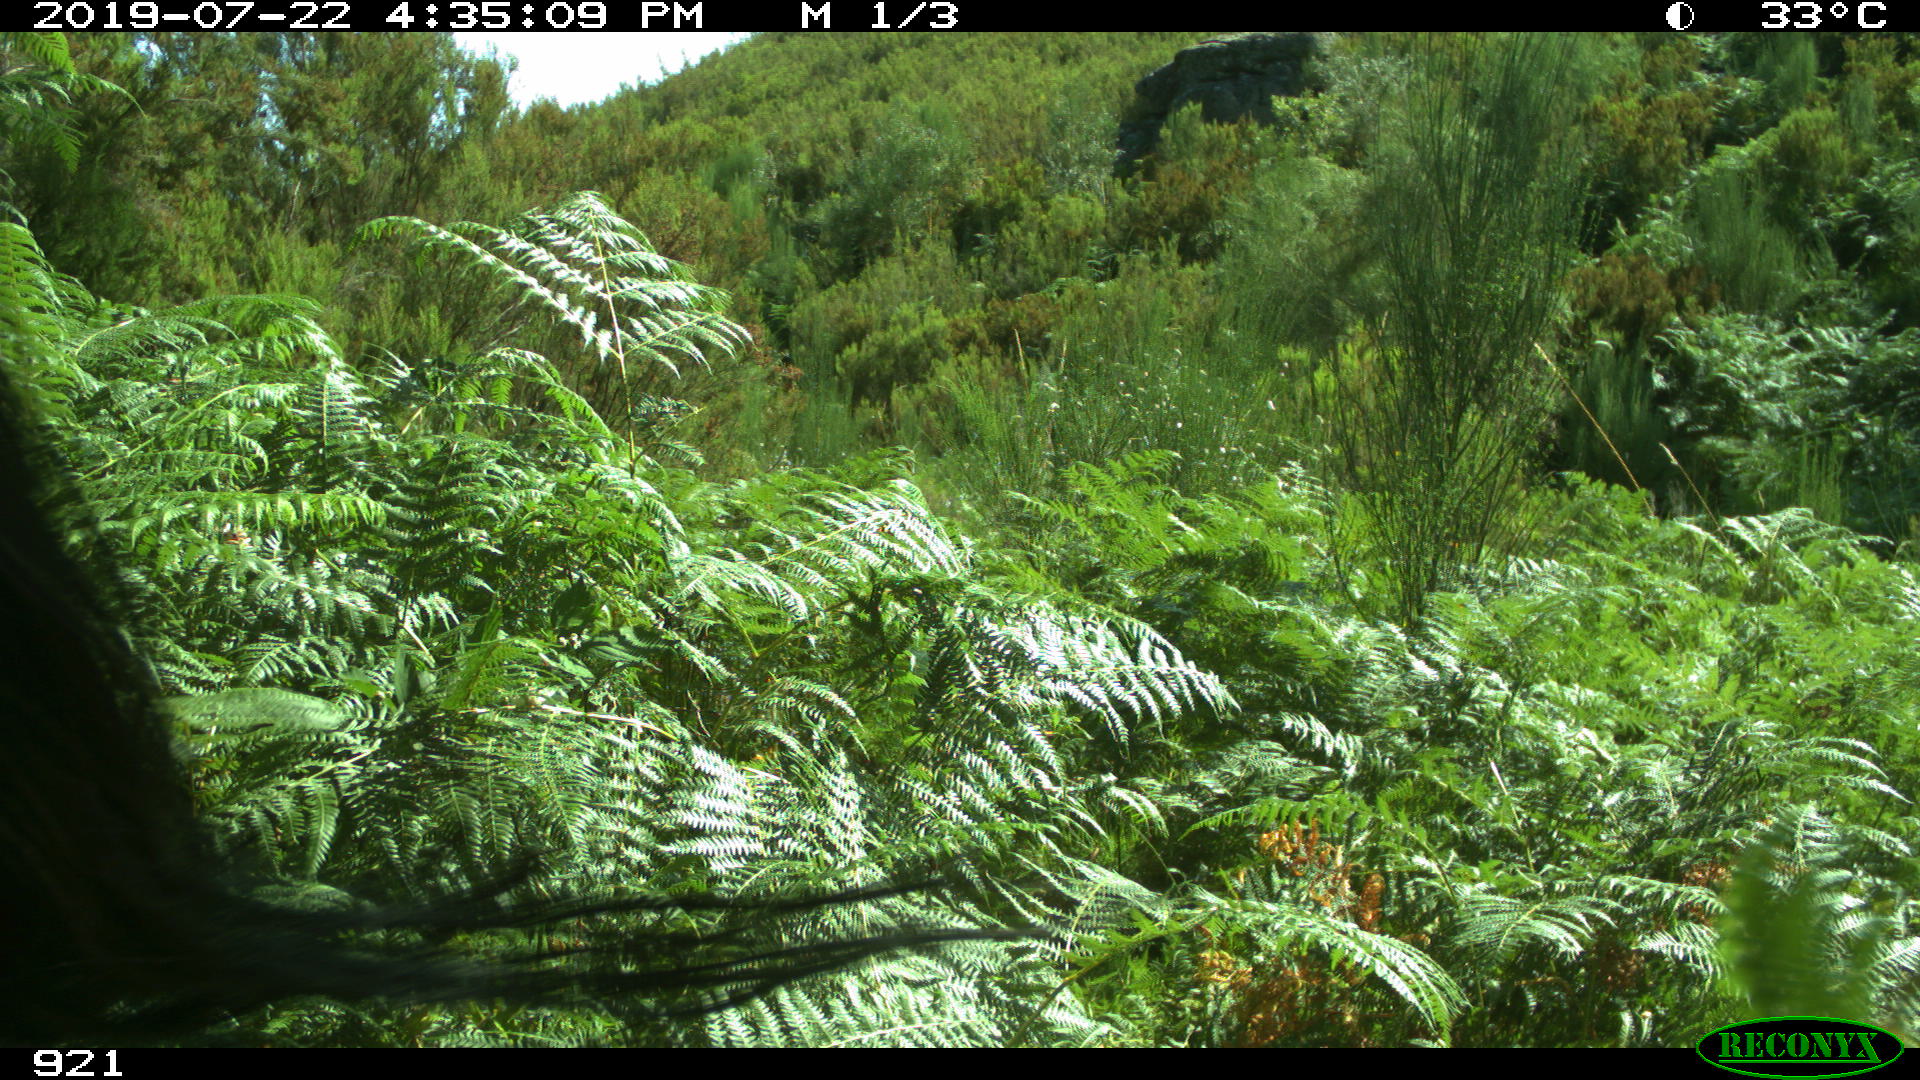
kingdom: Animalia
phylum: Chordata
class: Mammalia
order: Perissodactyla
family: Equidae
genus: Equus
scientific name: Equus caballus
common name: Horse
